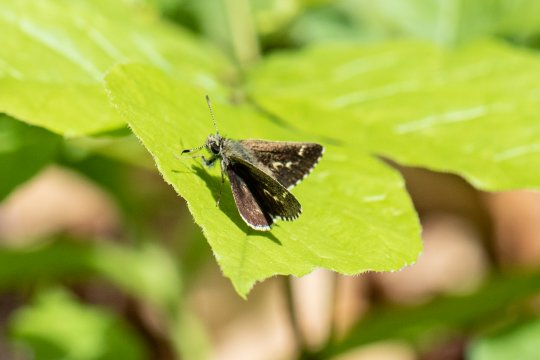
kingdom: Animalia
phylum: Arthropoda
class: Insecta
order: Lepidoptera
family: Hesperiidae
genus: Mastor
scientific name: Mastor hegon
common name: Pepper and Salt Skipper
